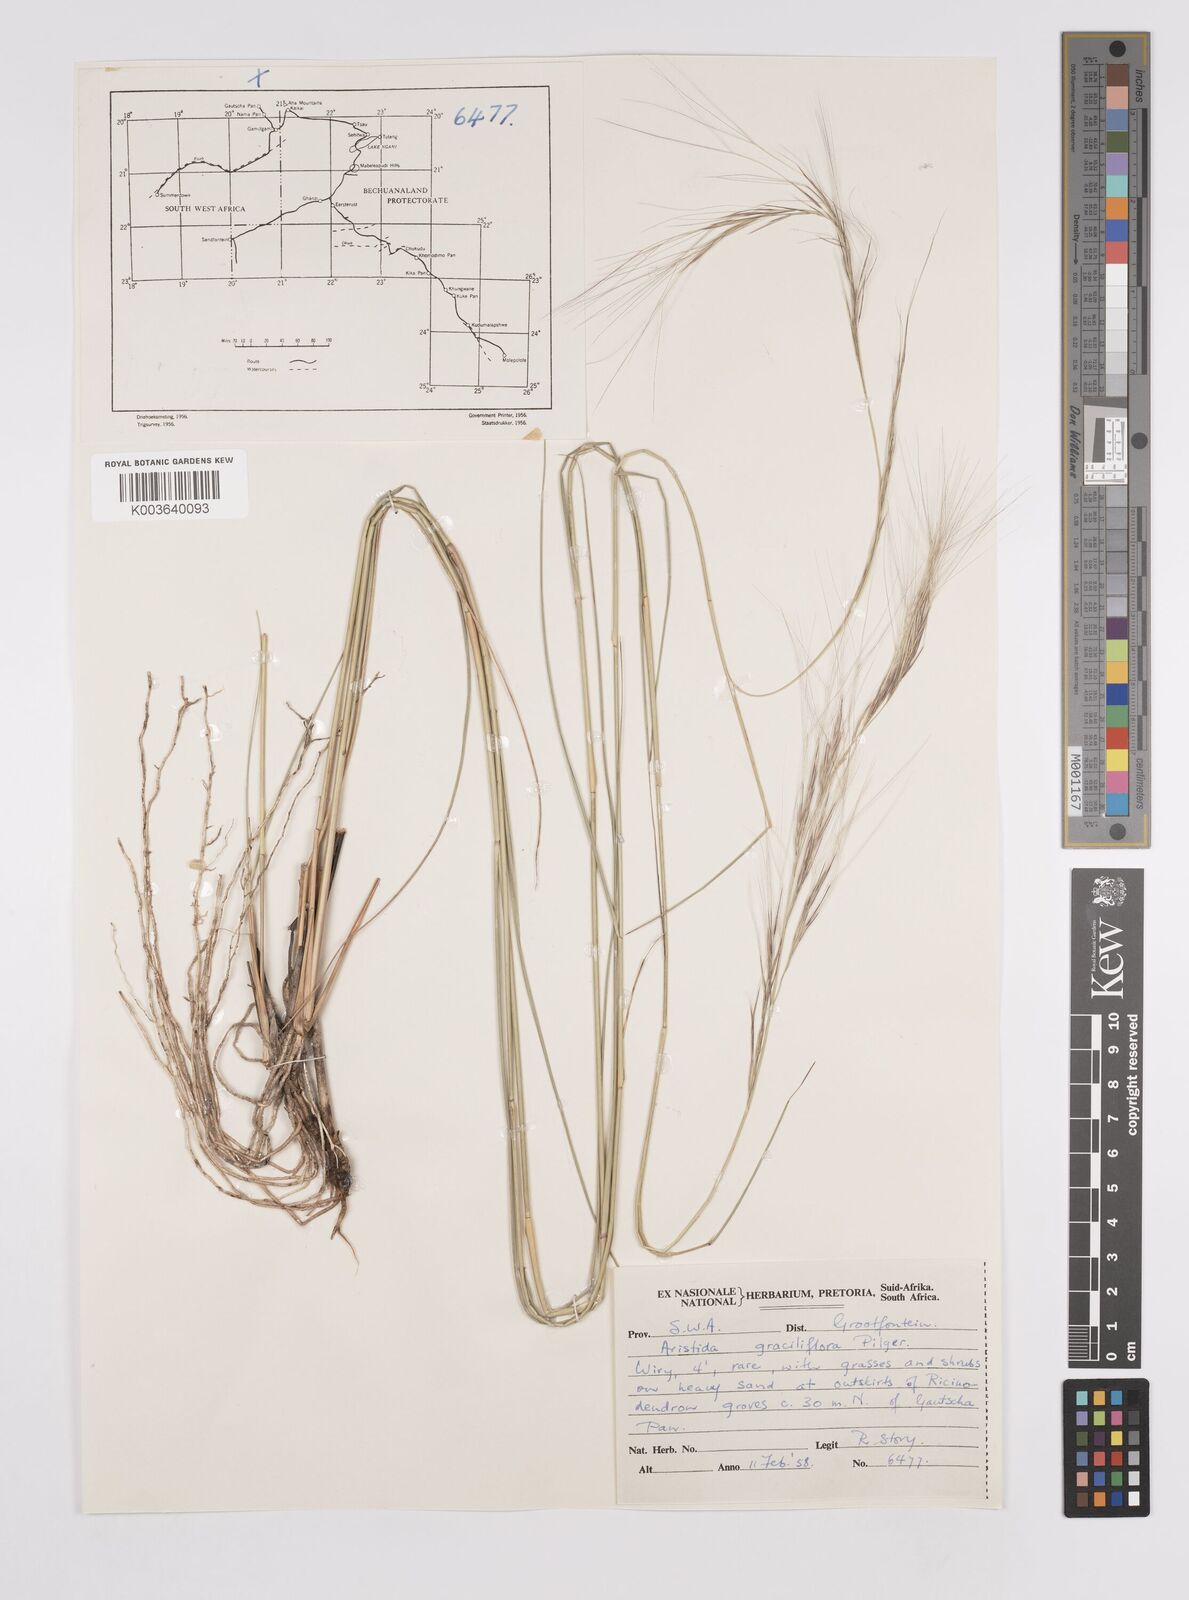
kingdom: Plantae
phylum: Tracheophyta
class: Liliopsida
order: Poales
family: Poaceae
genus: Aristida
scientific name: Aristida stipitata
